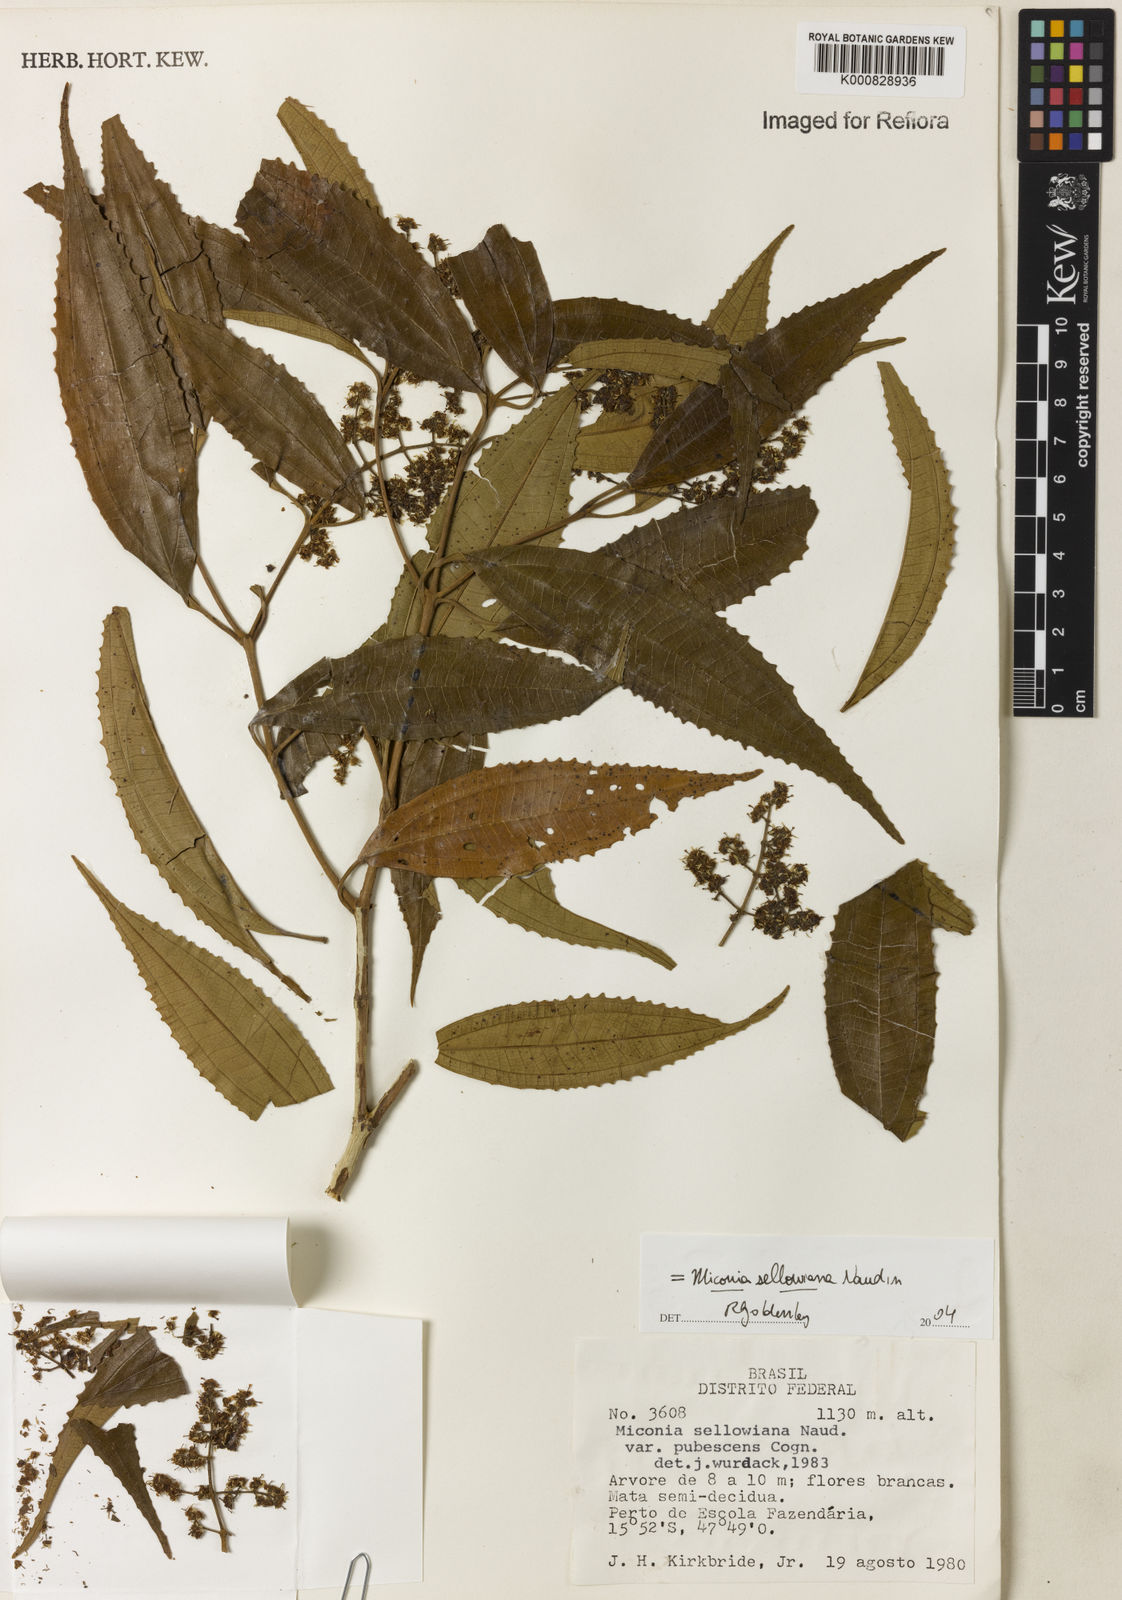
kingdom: Plantae
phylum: Tracheophyta
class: Magnoliopsida
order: Myrtales
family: Melastomataceae
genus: Miconia
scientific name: Miconia sellowiana
